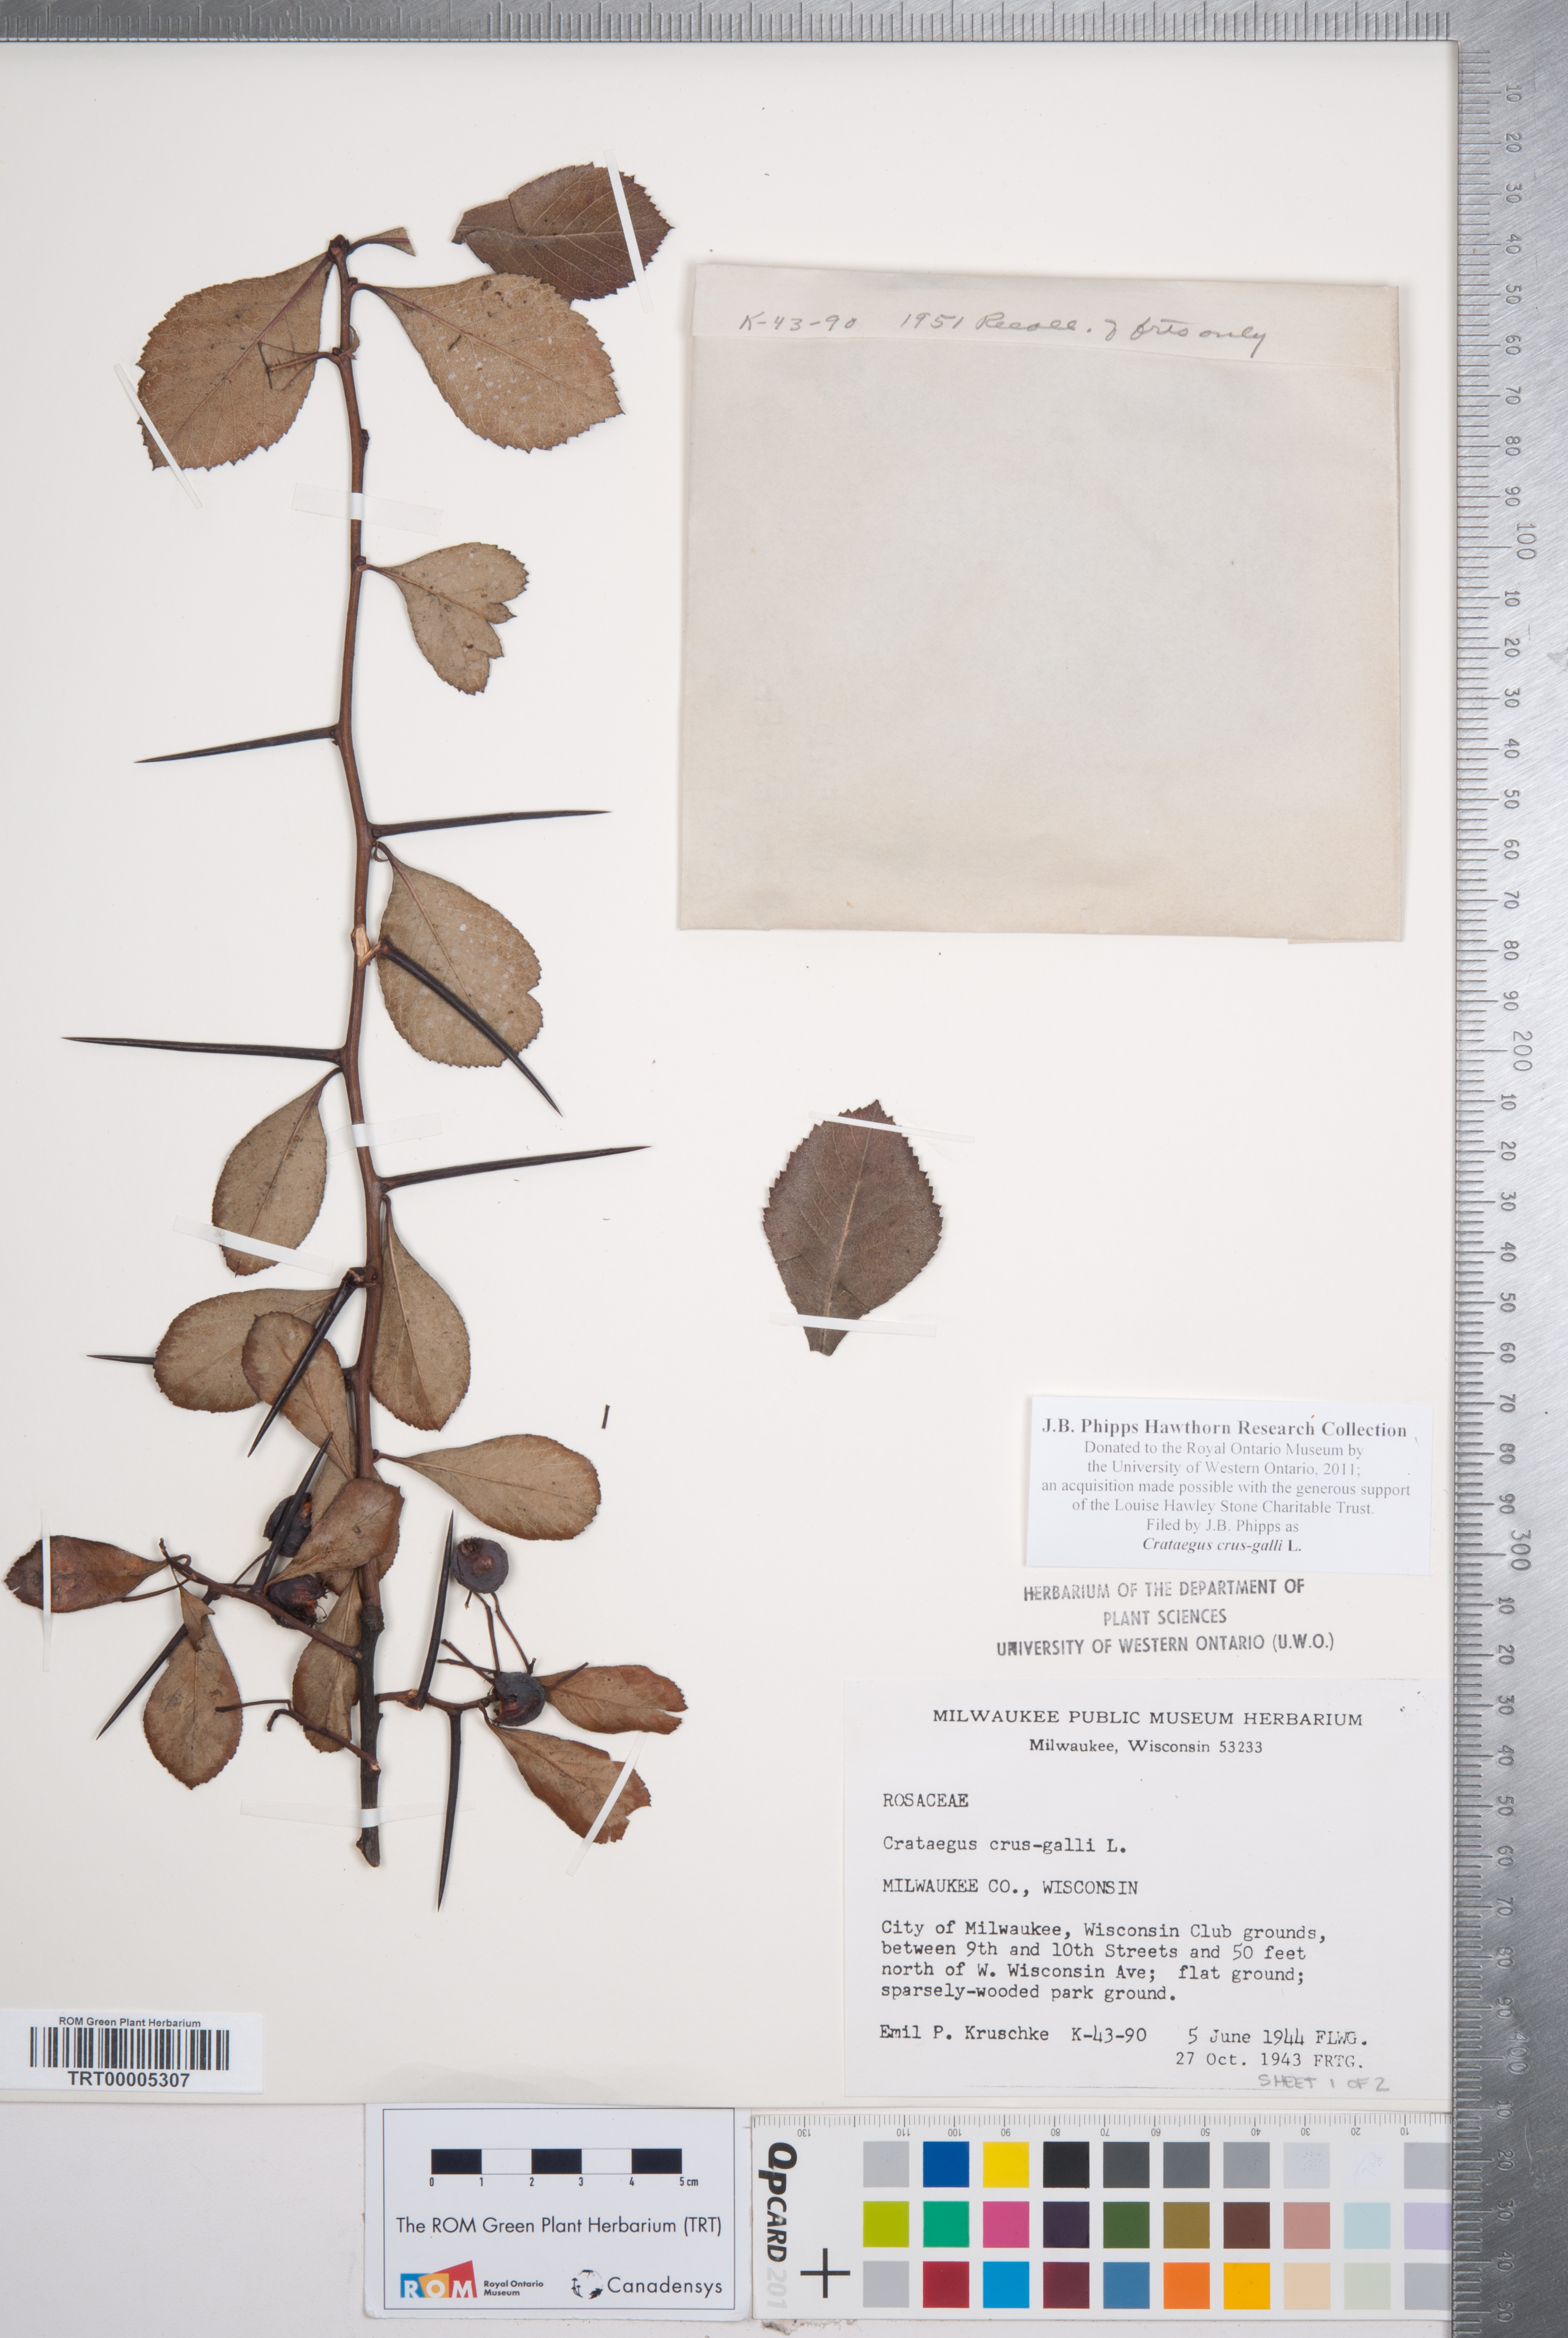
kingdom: Plantae
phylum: Tracheophyta
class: Magnoliopsida
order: Rosales
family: Rosaceae
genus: Crataegus
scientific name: Crataegus crus-galli
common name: Cockspurthorn
